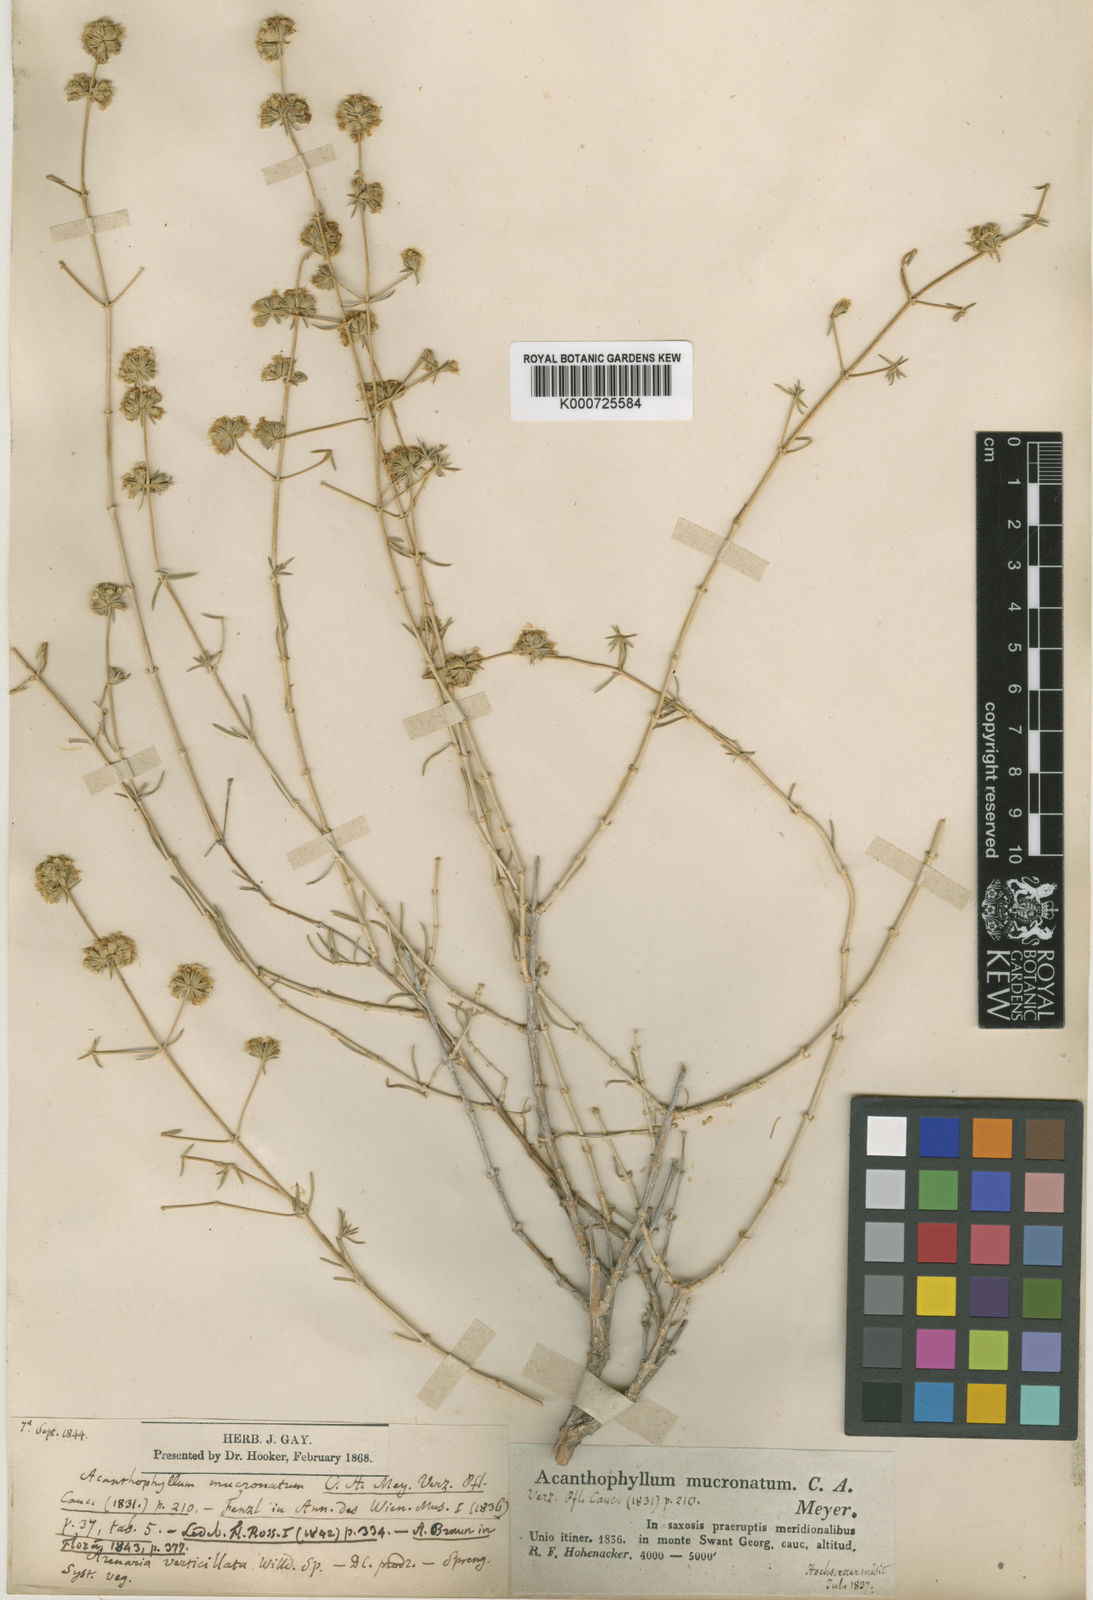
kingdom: Plantae
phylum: Tracheophyta
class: Magnoliopsida
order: Caryophyllales
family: Caryophyllaceae
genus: Acanthophyllum
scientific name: Acanthophyllum mucronatum
